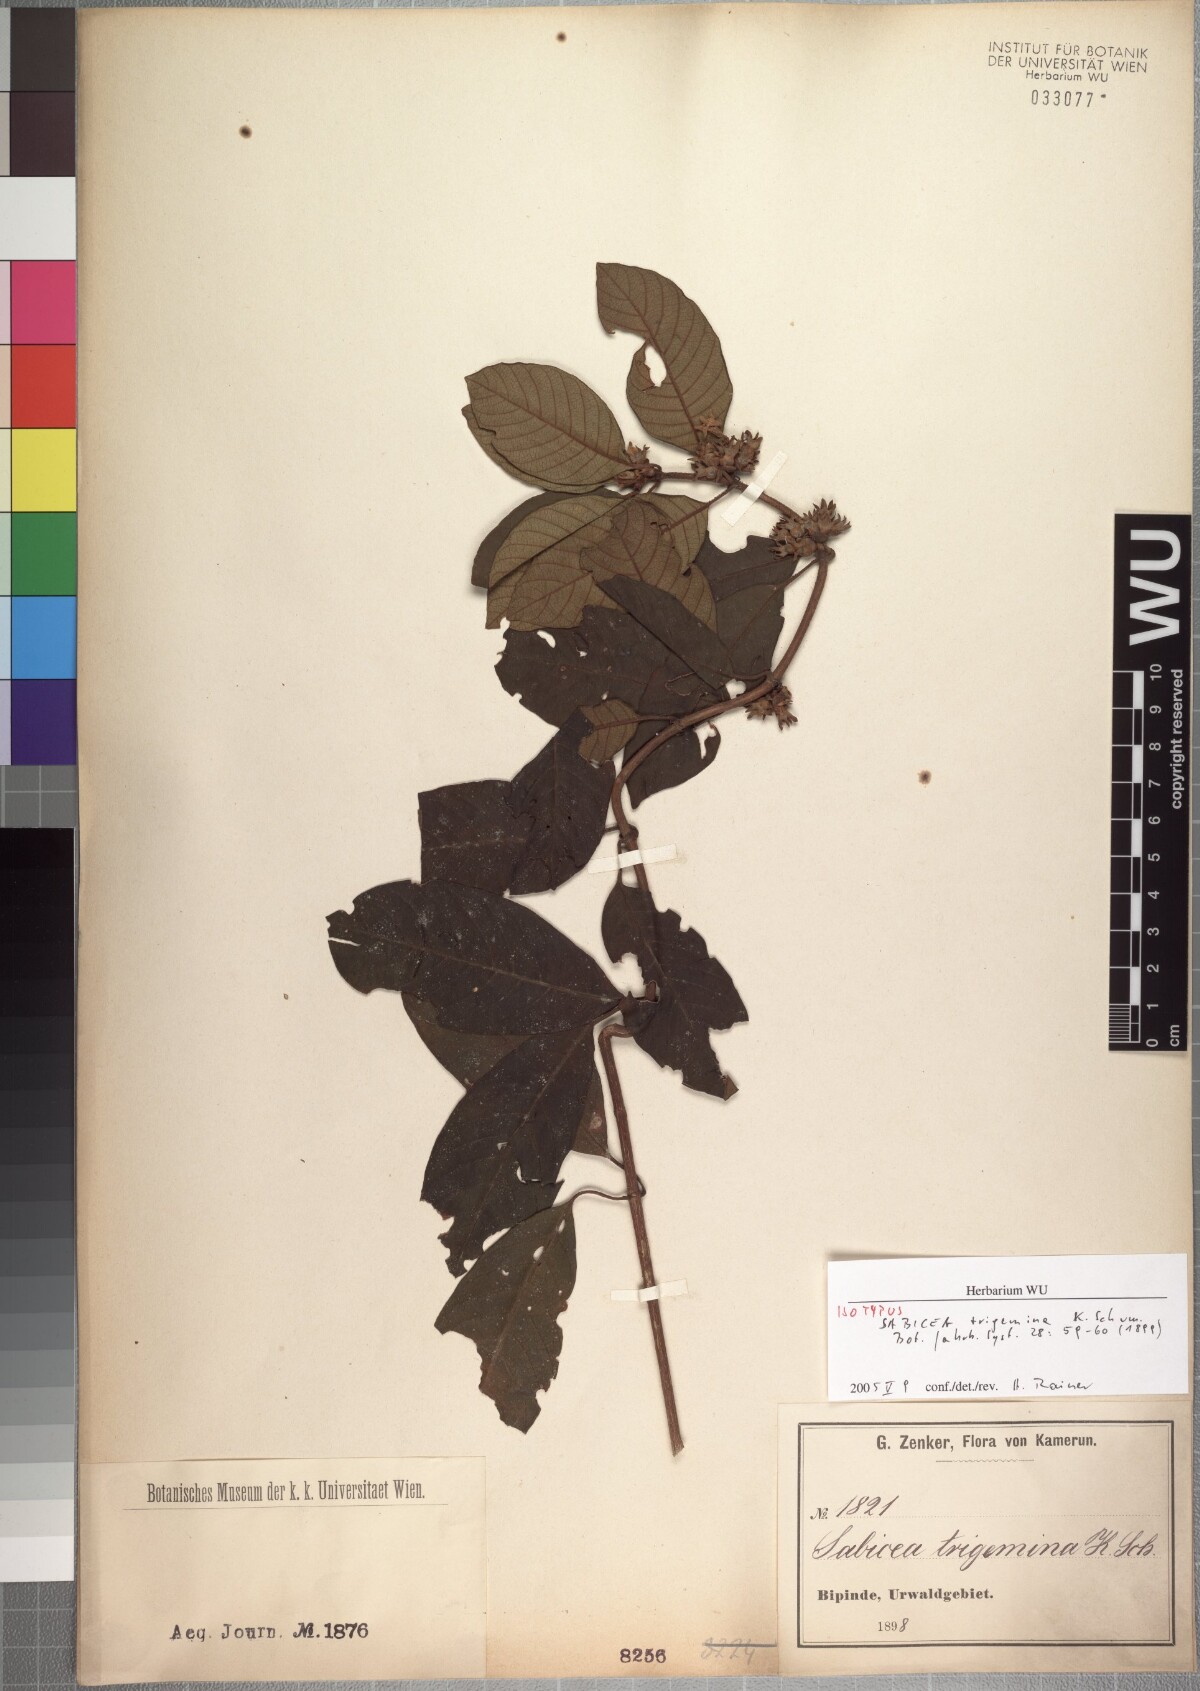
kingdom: Plantae
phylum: Tracheophyta
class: Magnoliopsida
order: Gentianales
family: Rubiaceae
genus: Sabicea
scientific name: Sabicea trigemina
